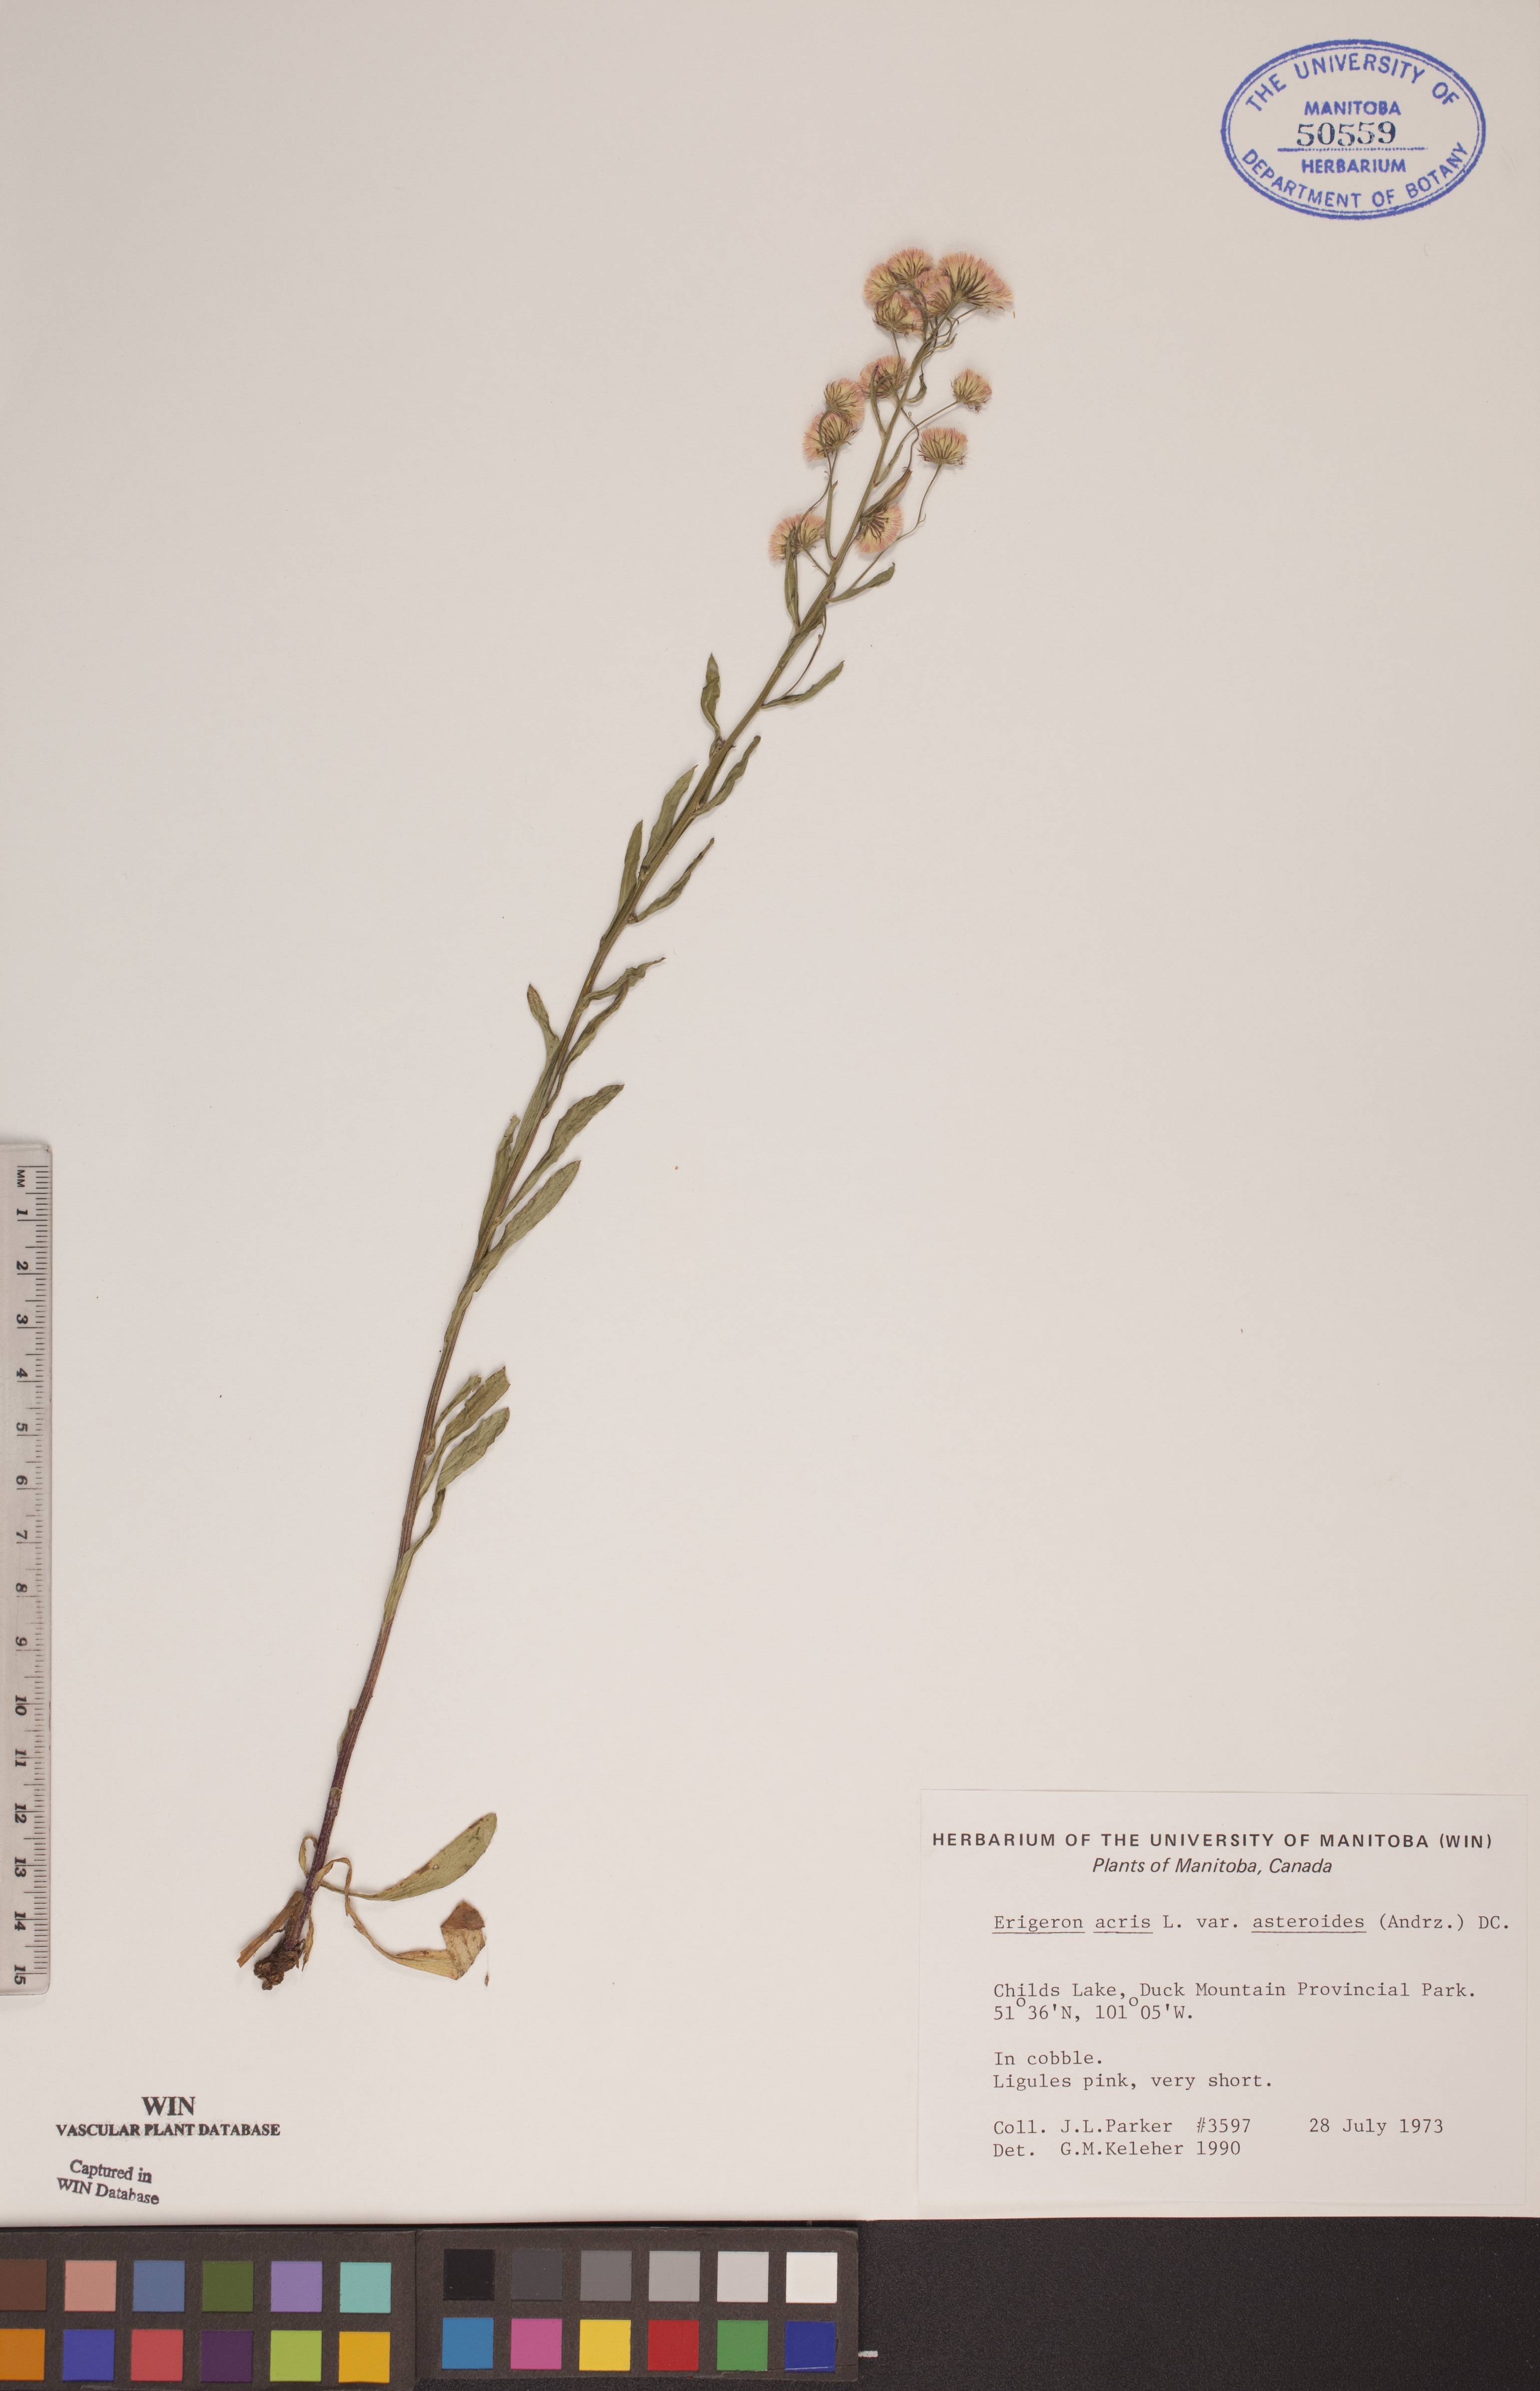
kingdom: Plantae
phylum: Tracheophyta
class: Magnoliopsida
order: Asterales
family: Asteraceae
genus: Erigeron
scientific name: Erigeron podolicus
